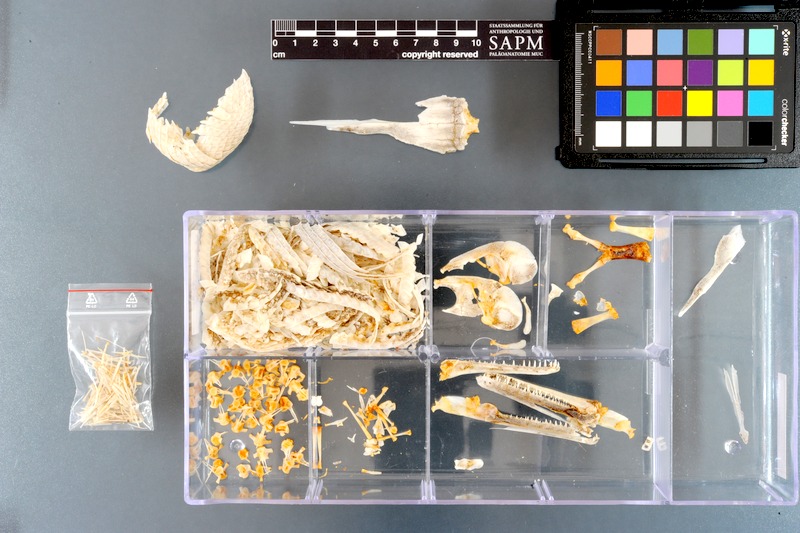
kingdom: Animalia
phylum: Chordata
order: Lepisosteiformes
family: Lepisosteidae
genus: Lepisosteus
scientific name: Lepisosteus platyrhincus
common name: Florida gar
